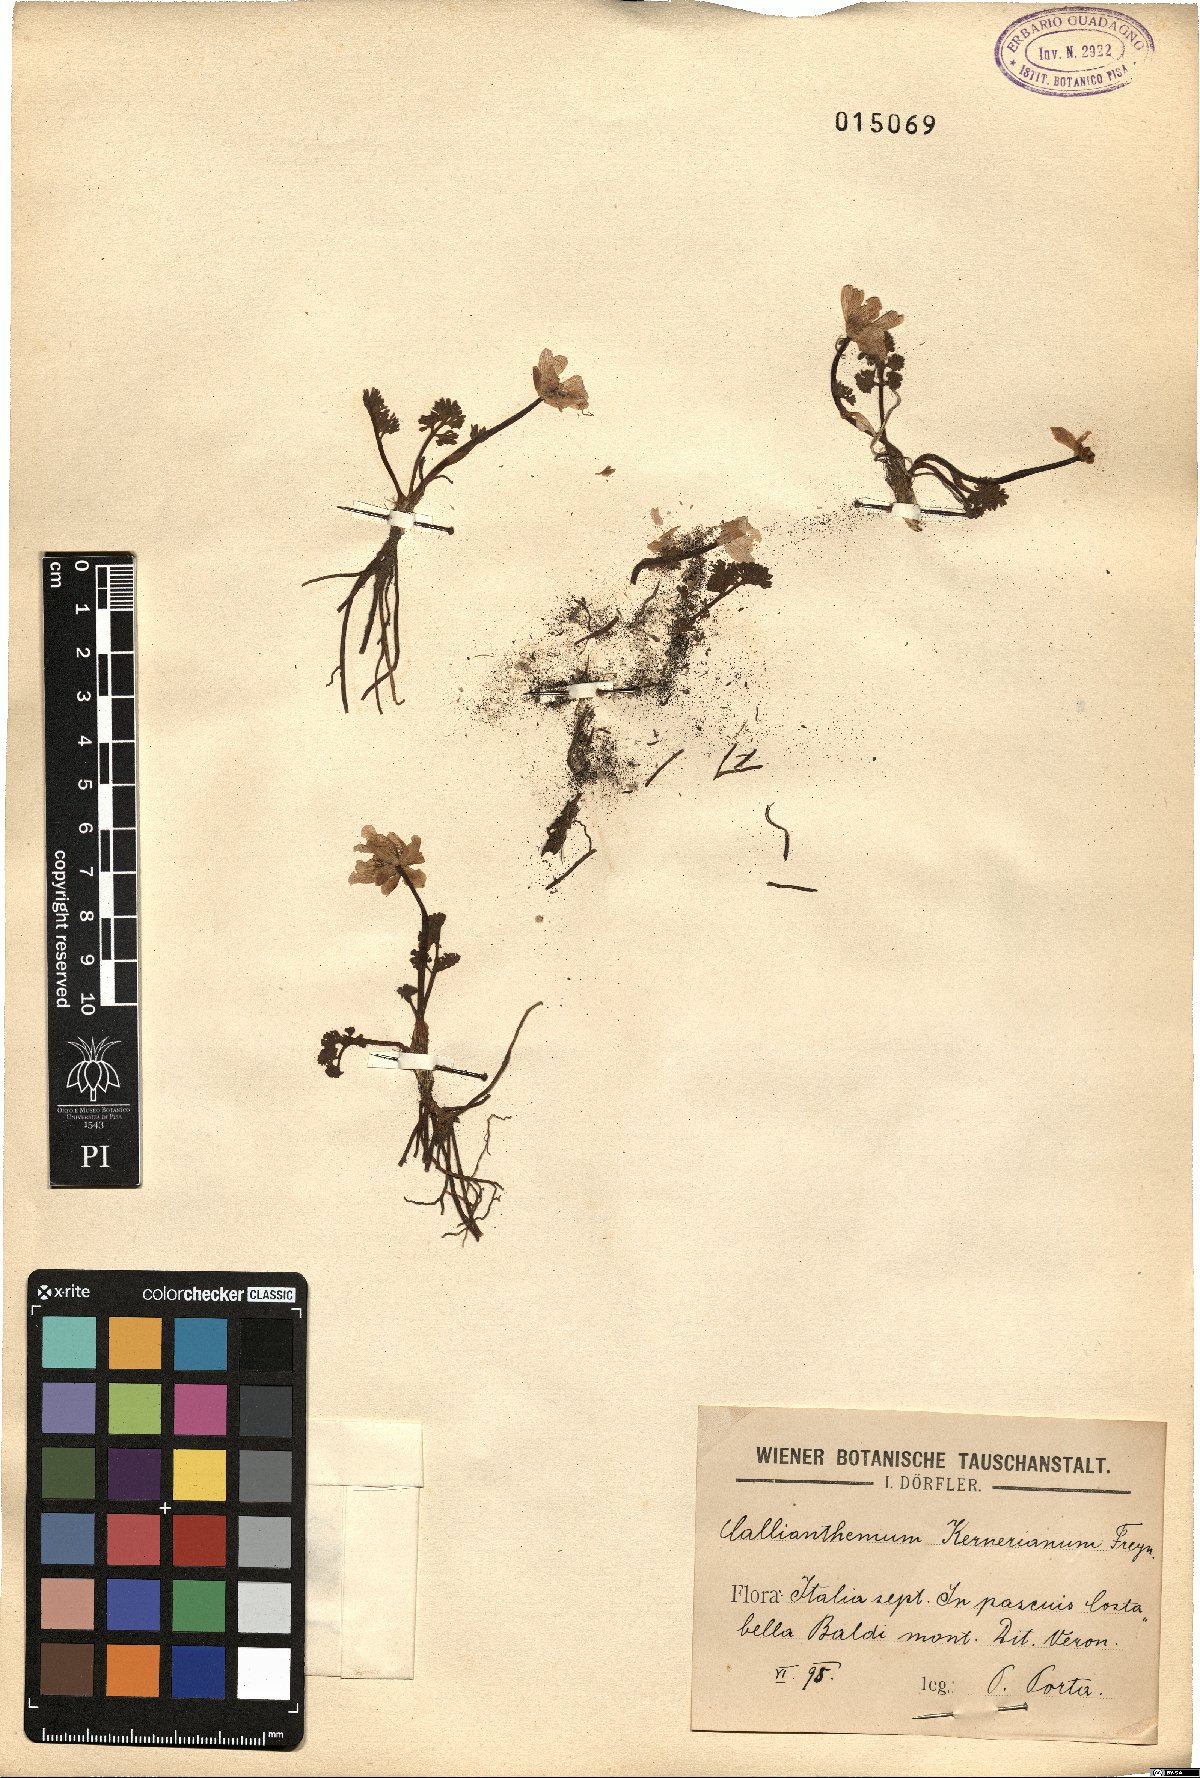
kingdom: Plantae
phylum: Tracheophyta
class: Magnoliopsida
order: Ranunculales
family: Ranunculaceae
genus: Callianthemum
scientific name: Callianthemum kernerianum
